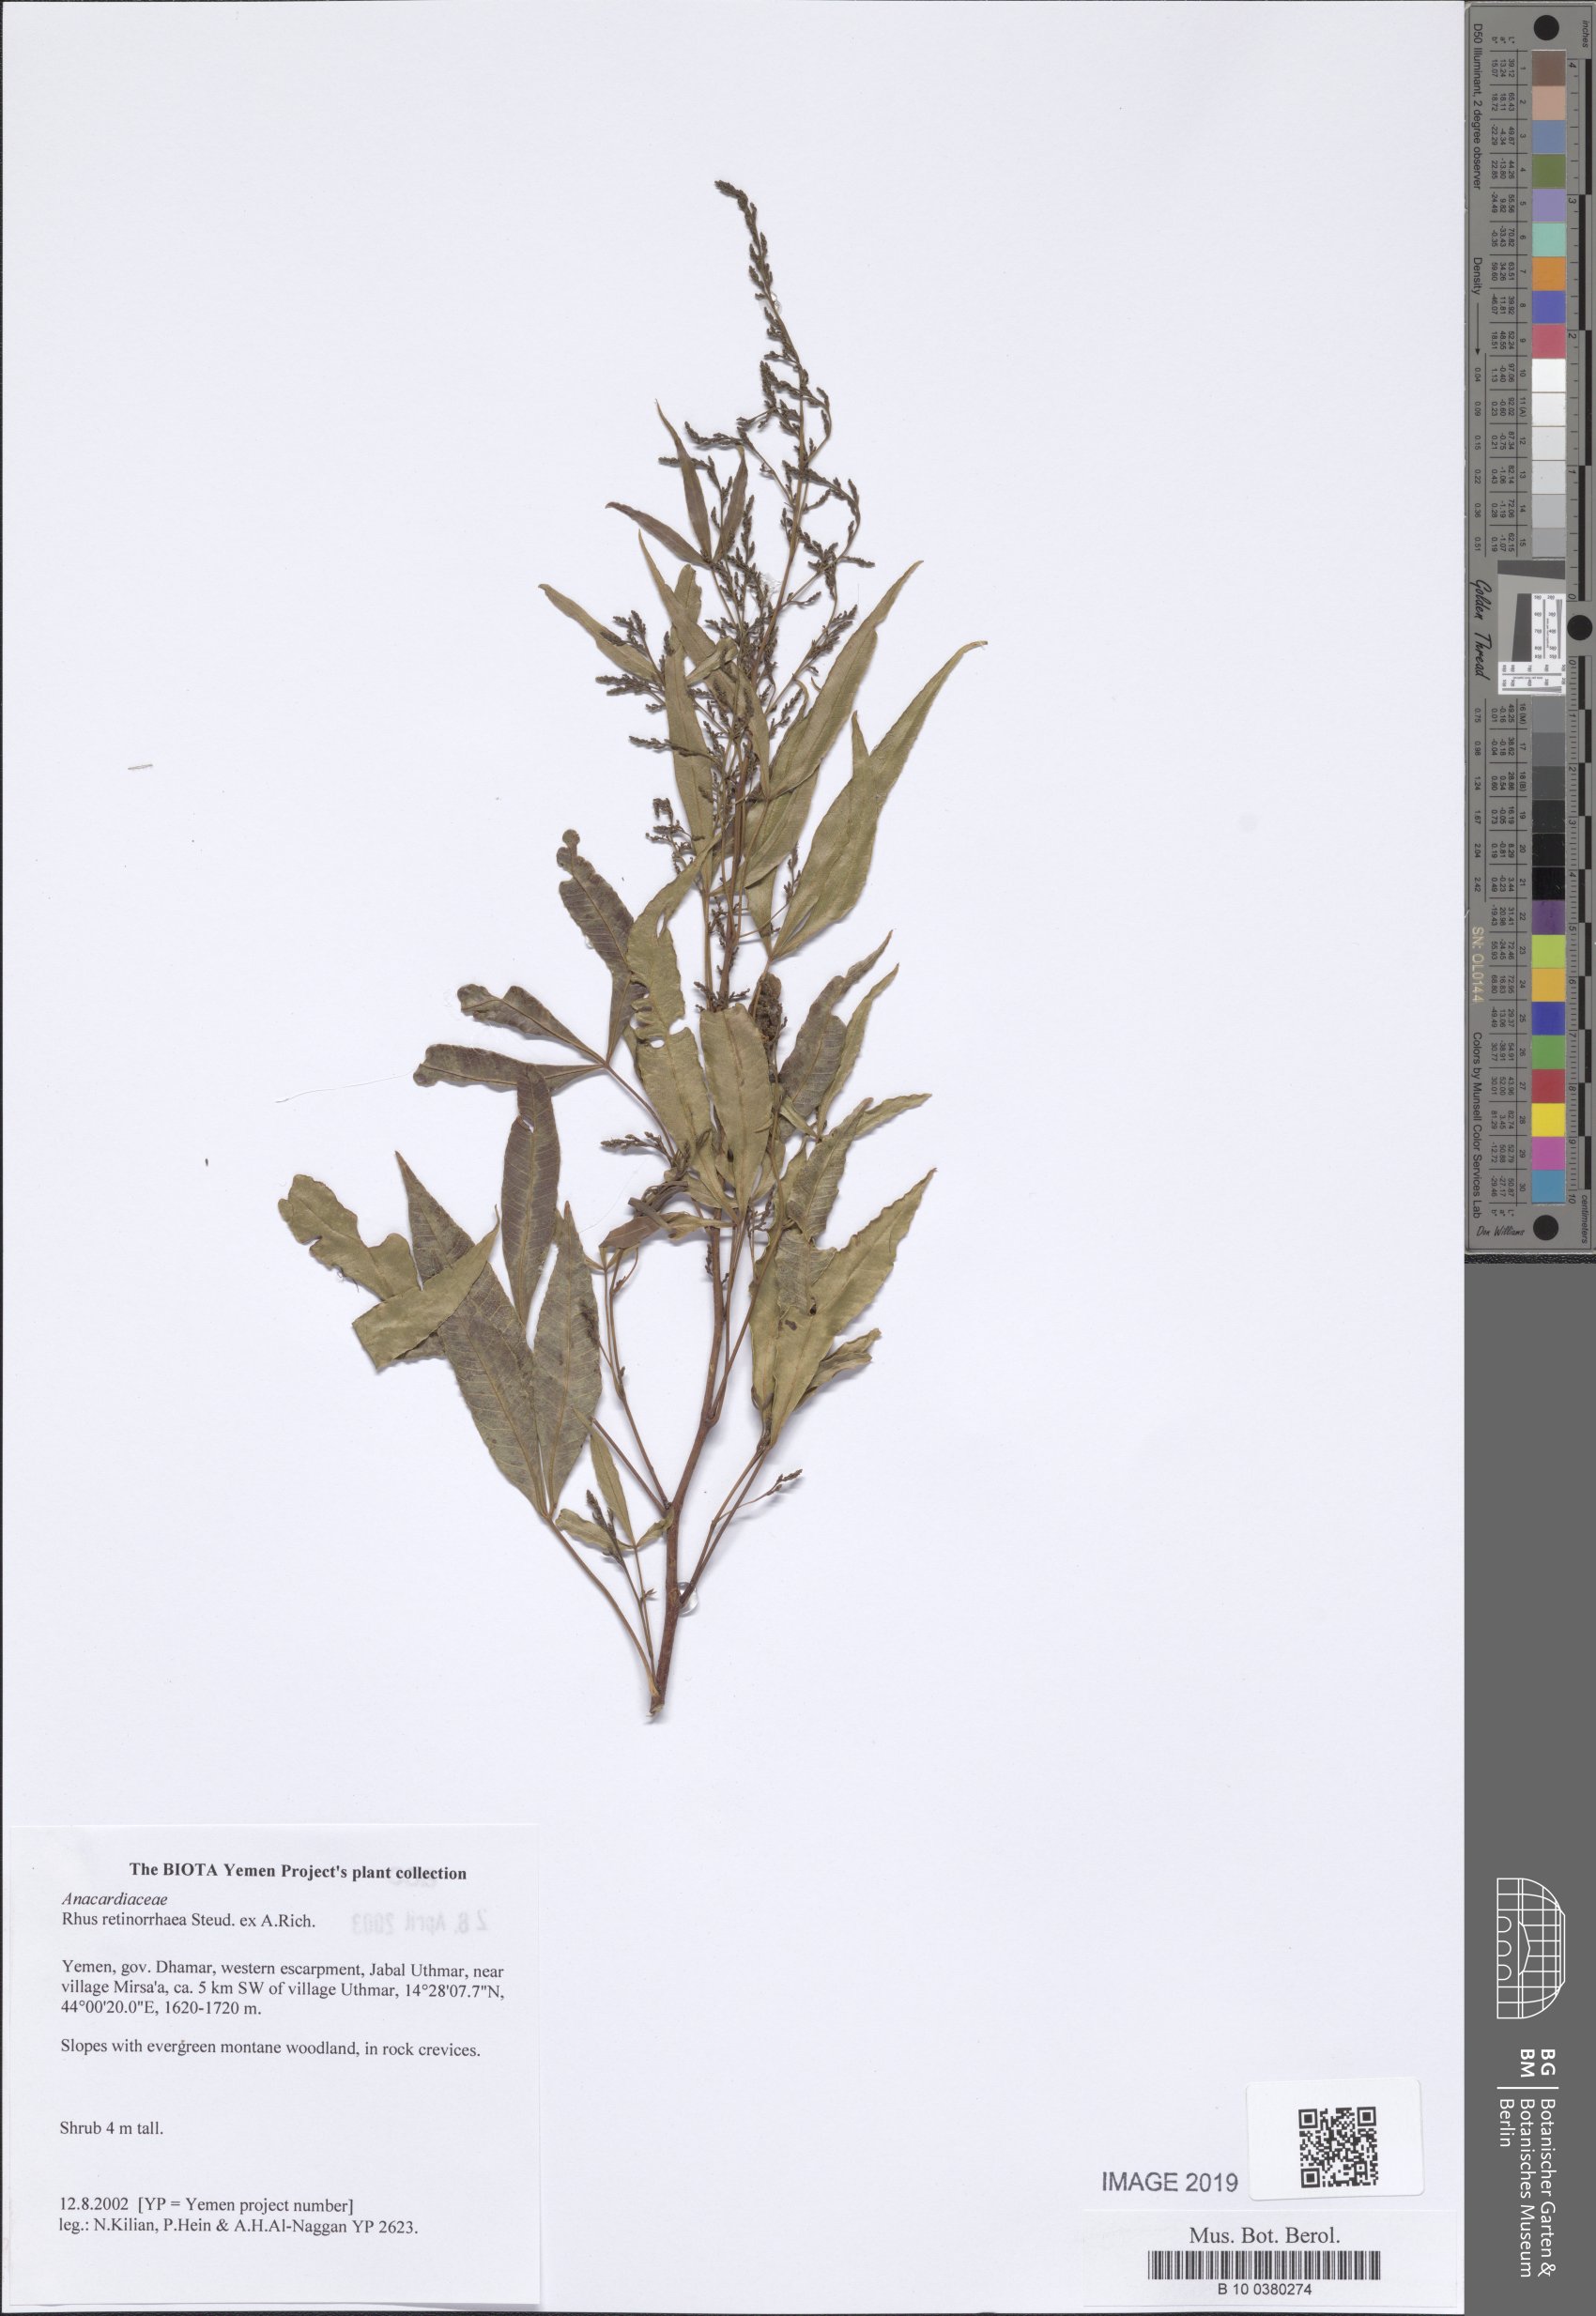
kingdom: Plantae
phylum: Tracheophyta
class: Magnoliopsida
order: Sapindales
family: Anacardiaceae
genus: Rhus
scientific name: Rhus retinorrhaea
